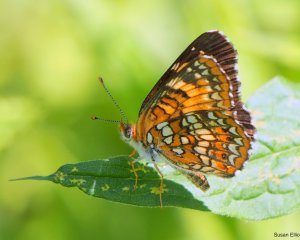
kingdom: Animalia
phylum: Arthropoda
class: Insecta
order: Lepidoptera
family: Nymphalidae
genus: Chlosyne
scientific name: Chlosyne harrisii
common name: Harris's Checkerspot
